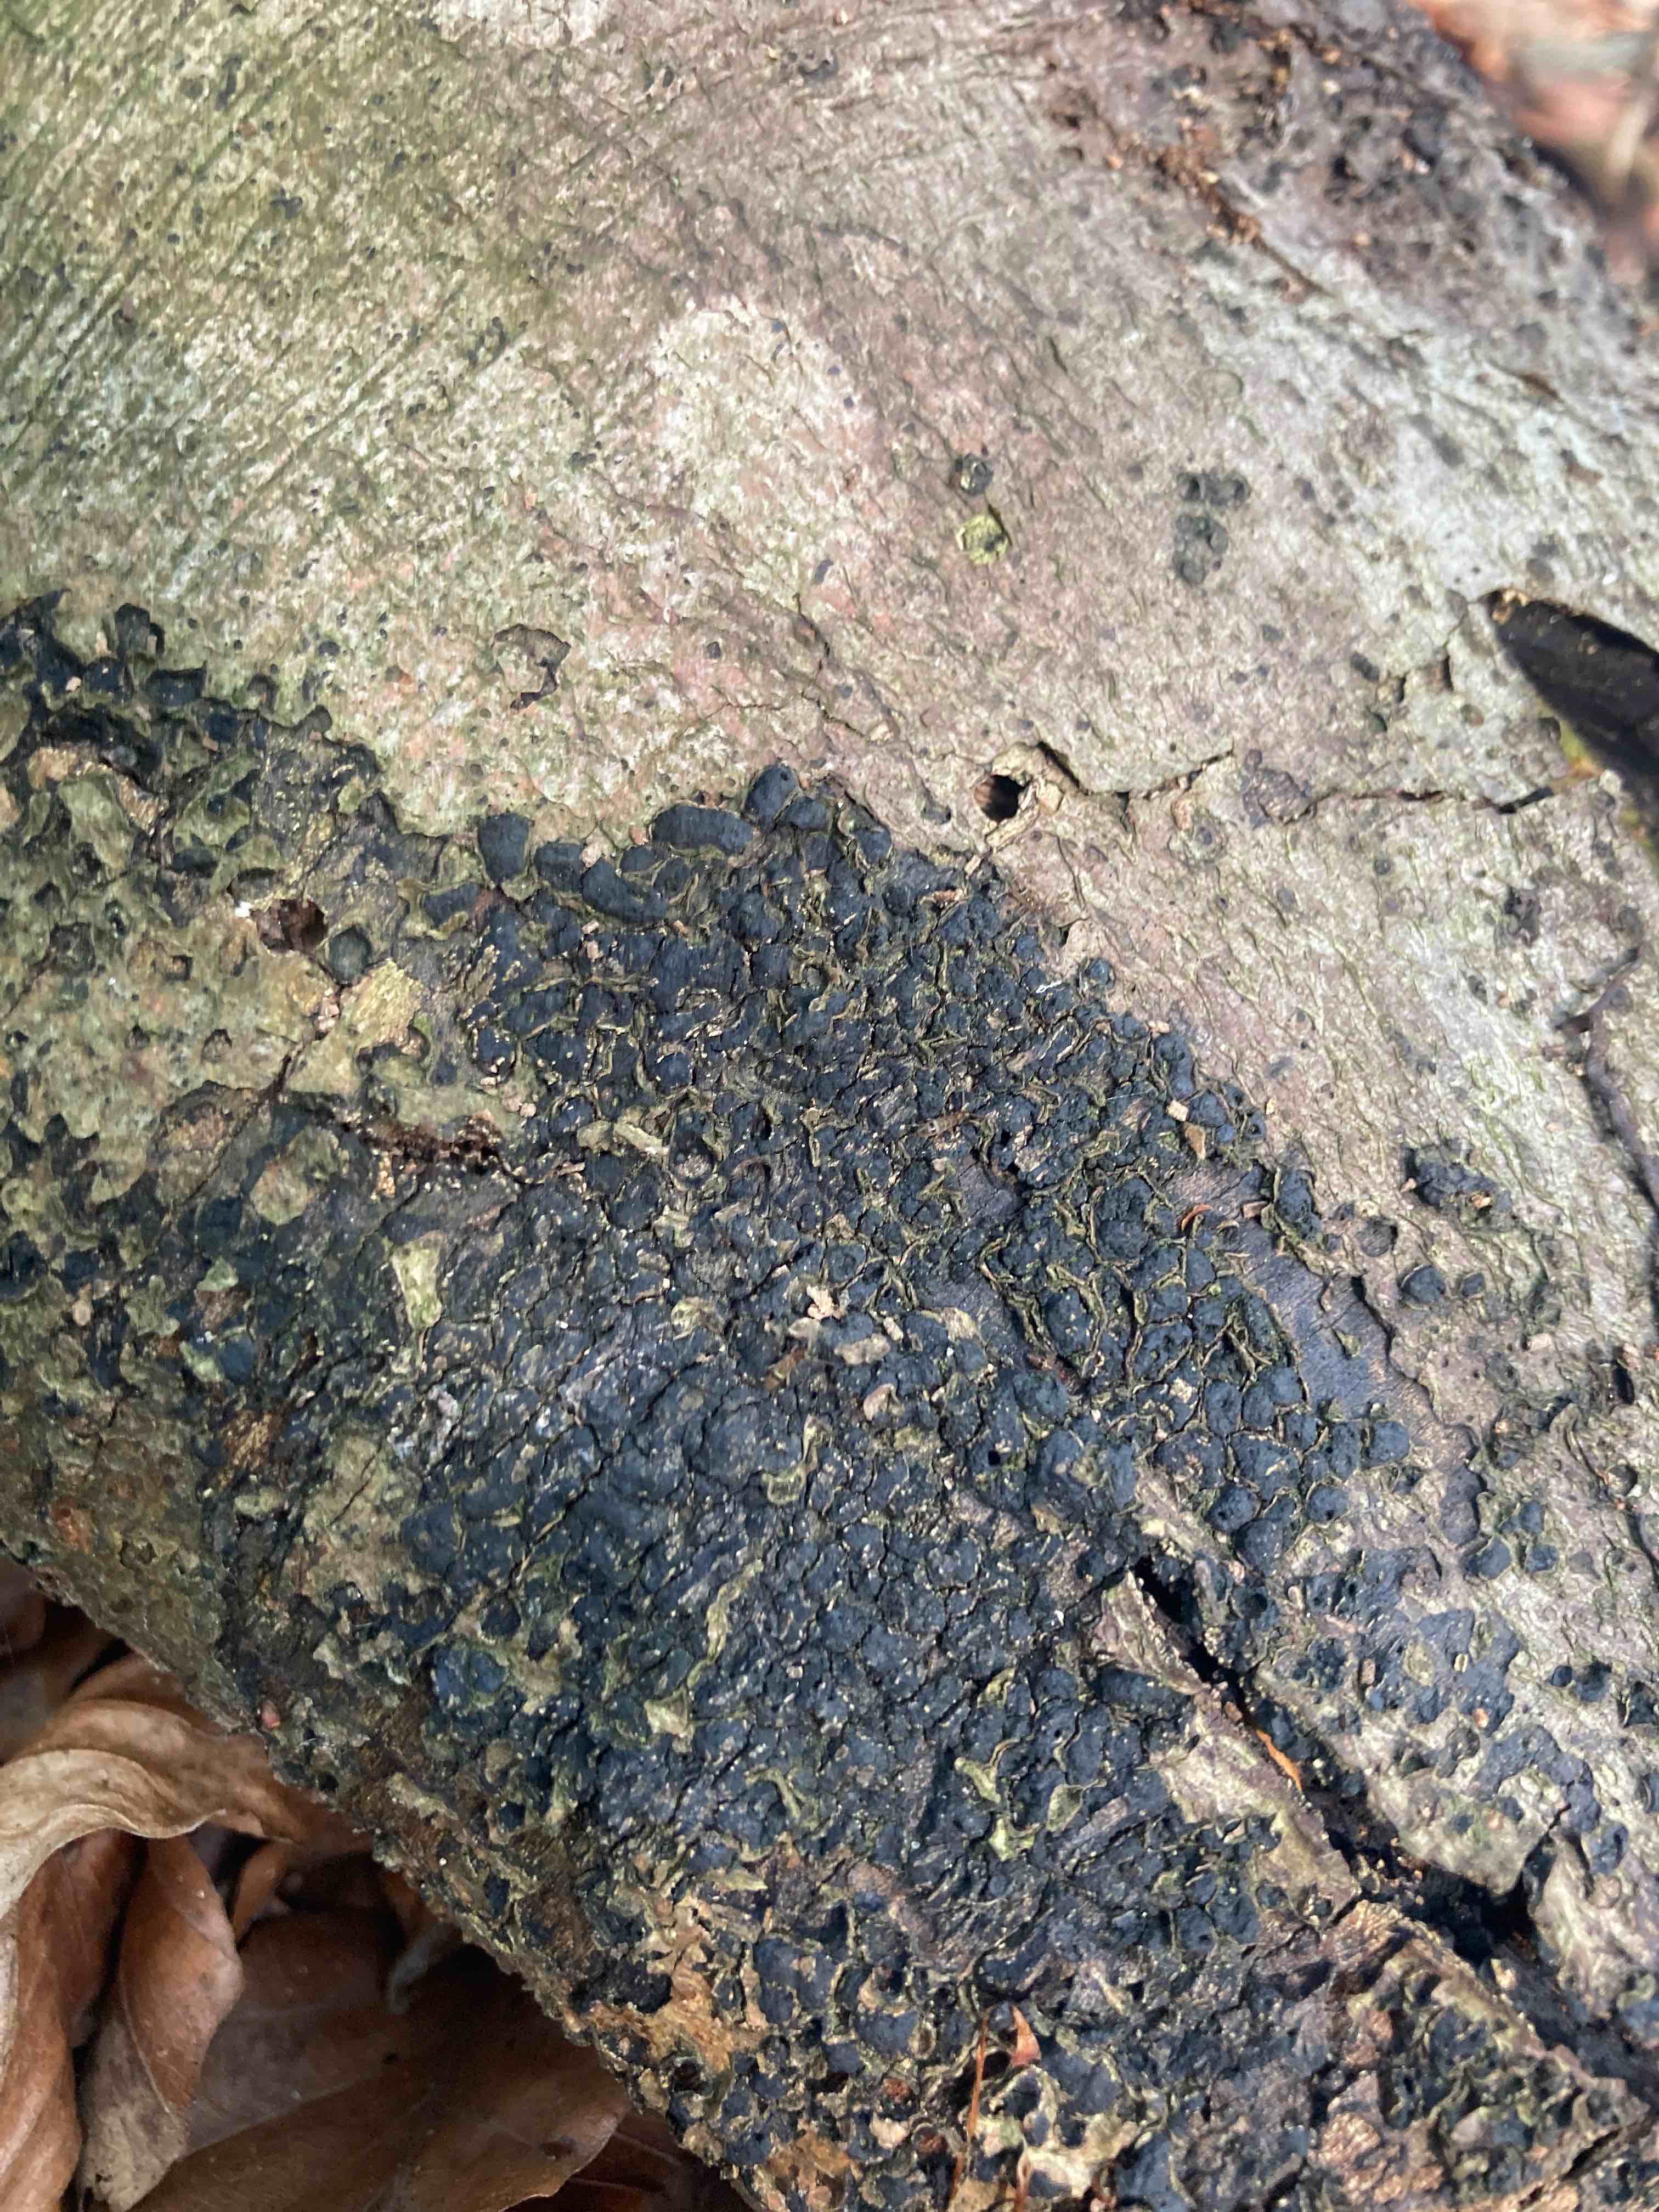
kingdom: Fungi
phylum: Ascomycota
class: Sordariomycetes
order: Xylariales
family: Melogrammataceae
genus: Melogramma
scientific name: Melogramma spiniferum
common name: bøgefod-kulhals
